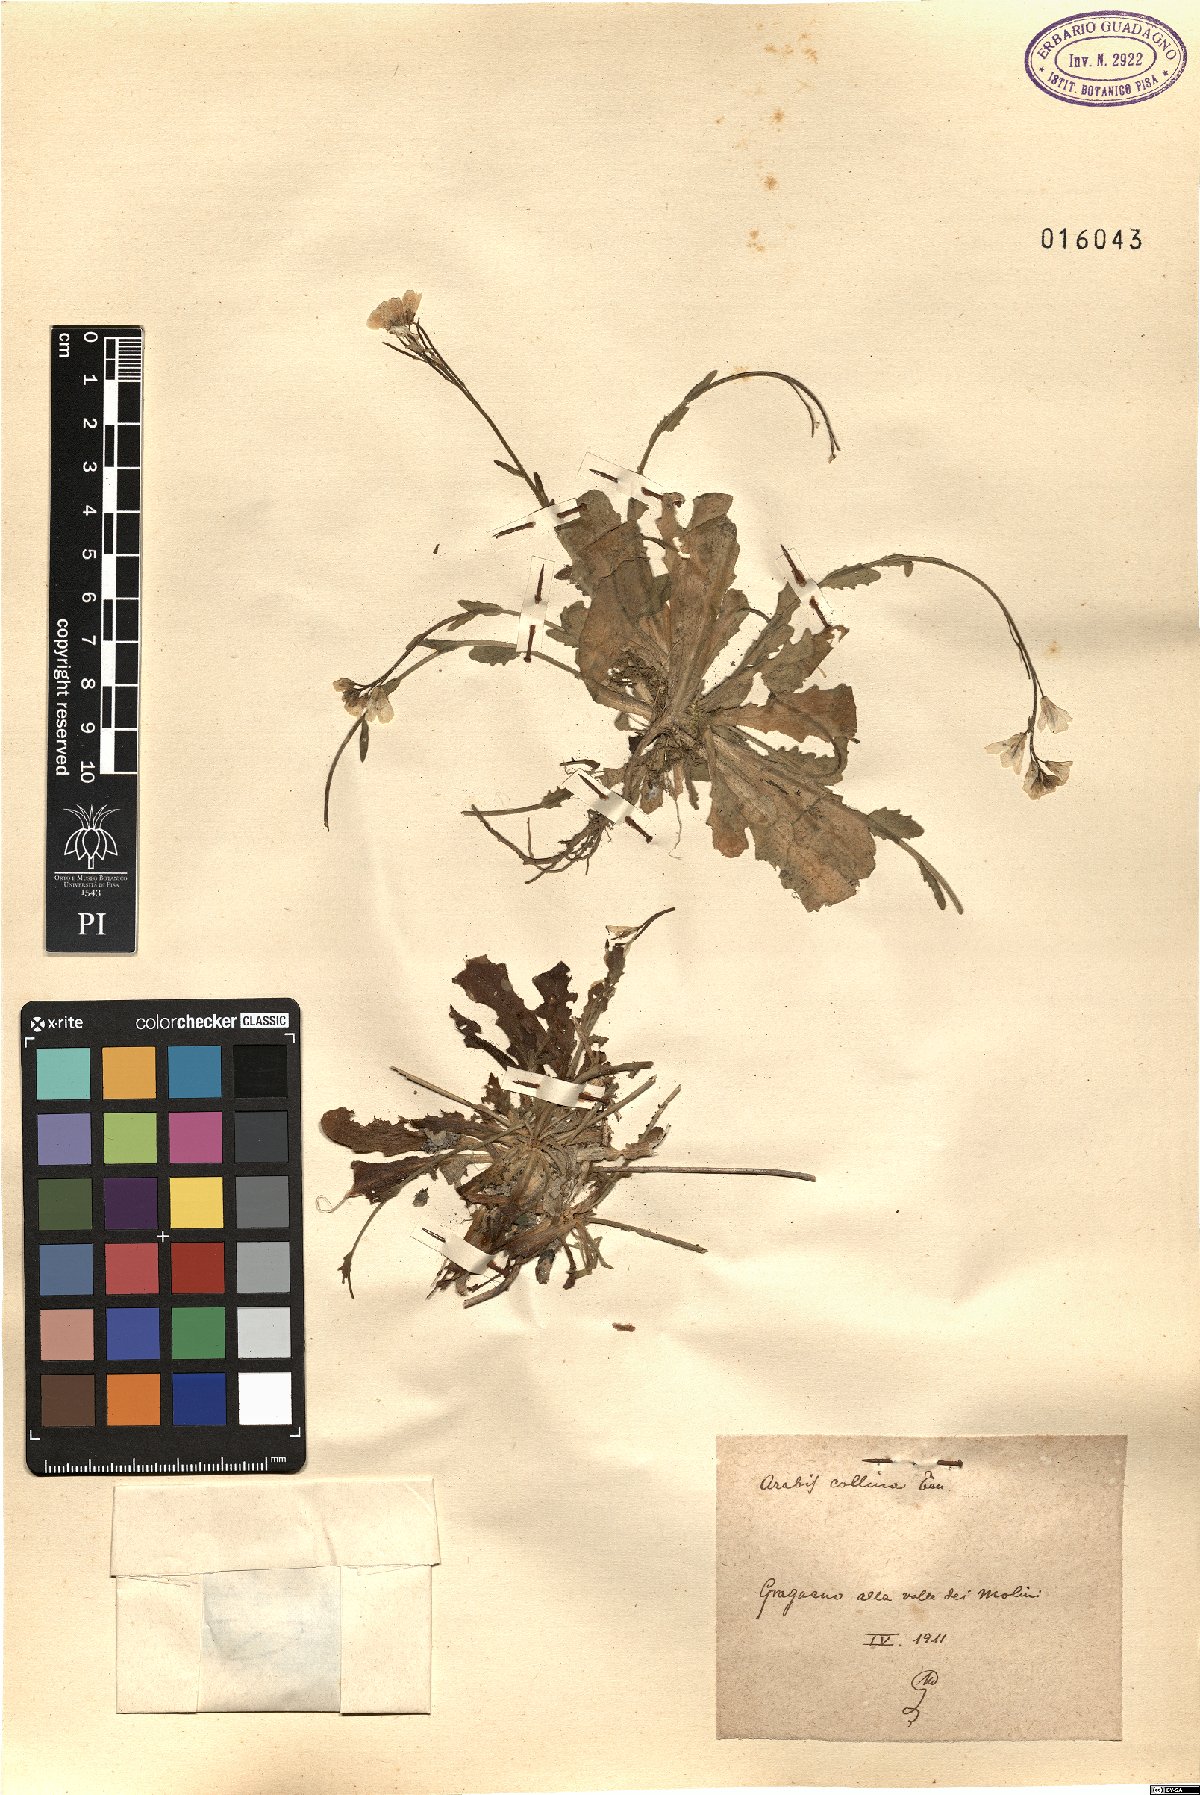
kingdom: Plantae
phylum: Tracheophyta
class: Magnoliopsida
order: Brassicales
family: Brassicaceae
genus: Arabis
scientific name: Arabis collina
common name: Rosy cress
